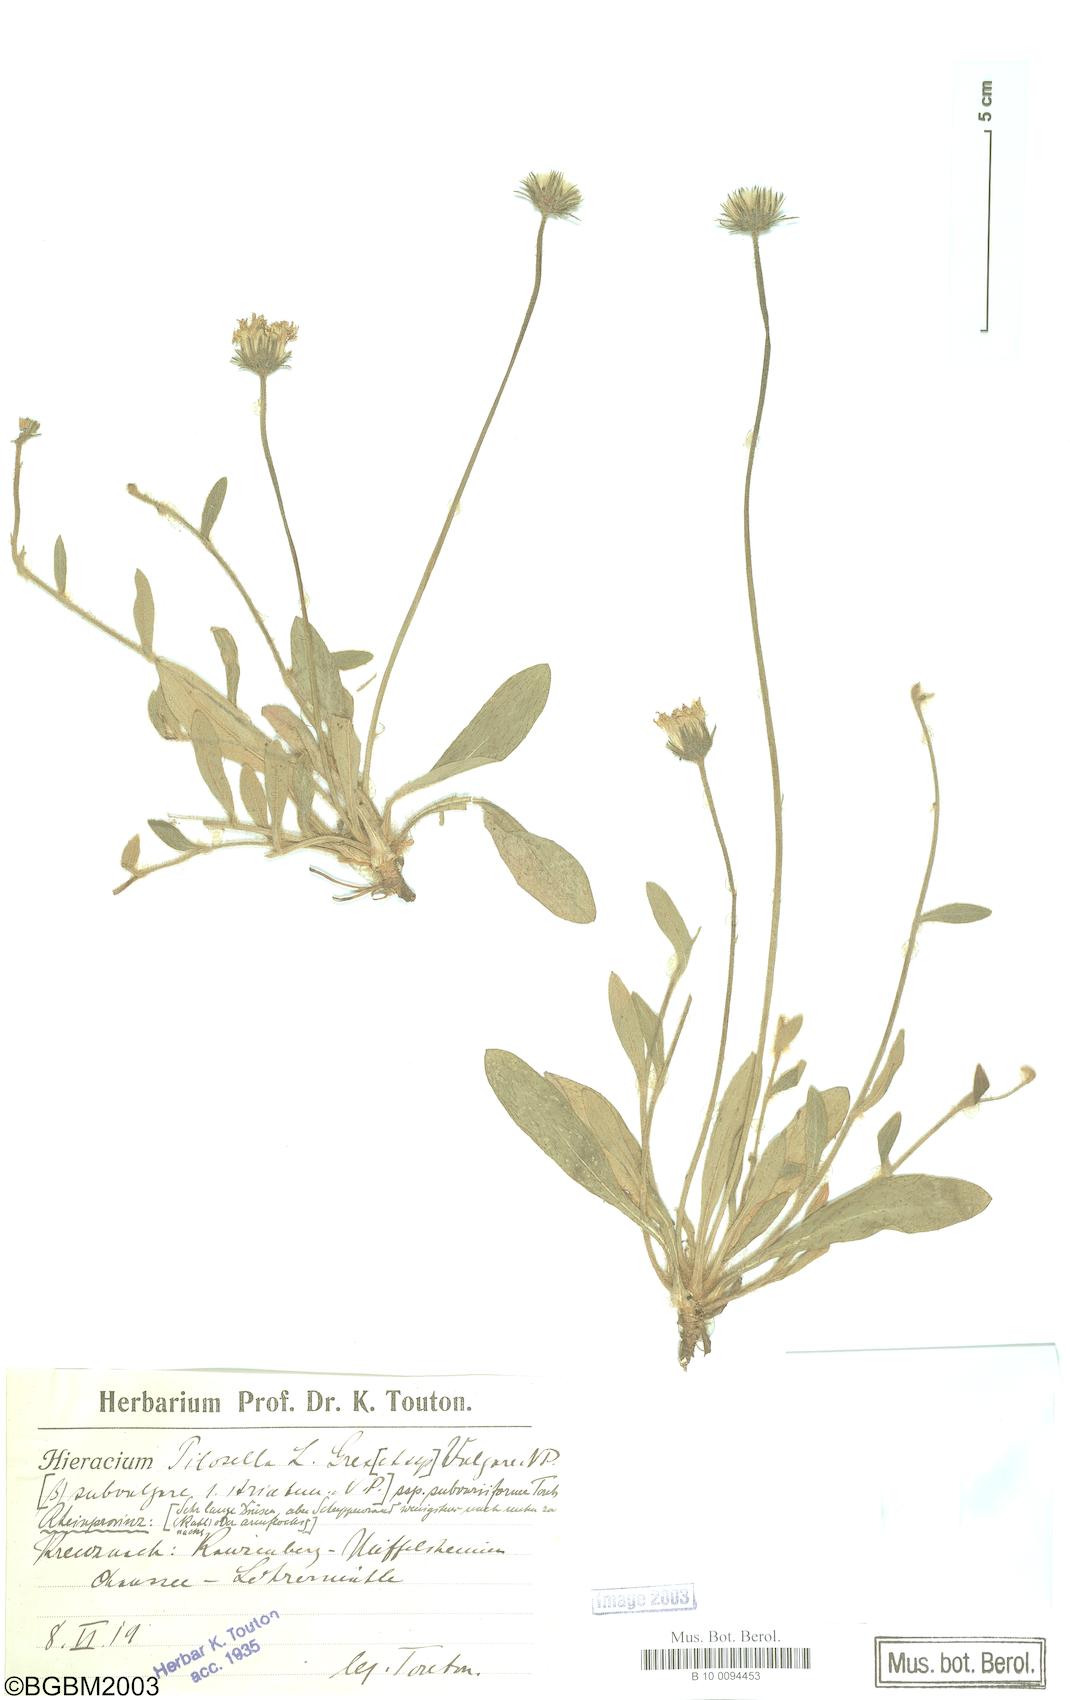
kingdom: Plantae
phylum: Tracheophyta
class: Magnoliopsida
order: Asterales
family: Asteraceae
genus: Pilosella
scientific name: Pilosella officinarum
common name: Mouse-ear hawkweed
